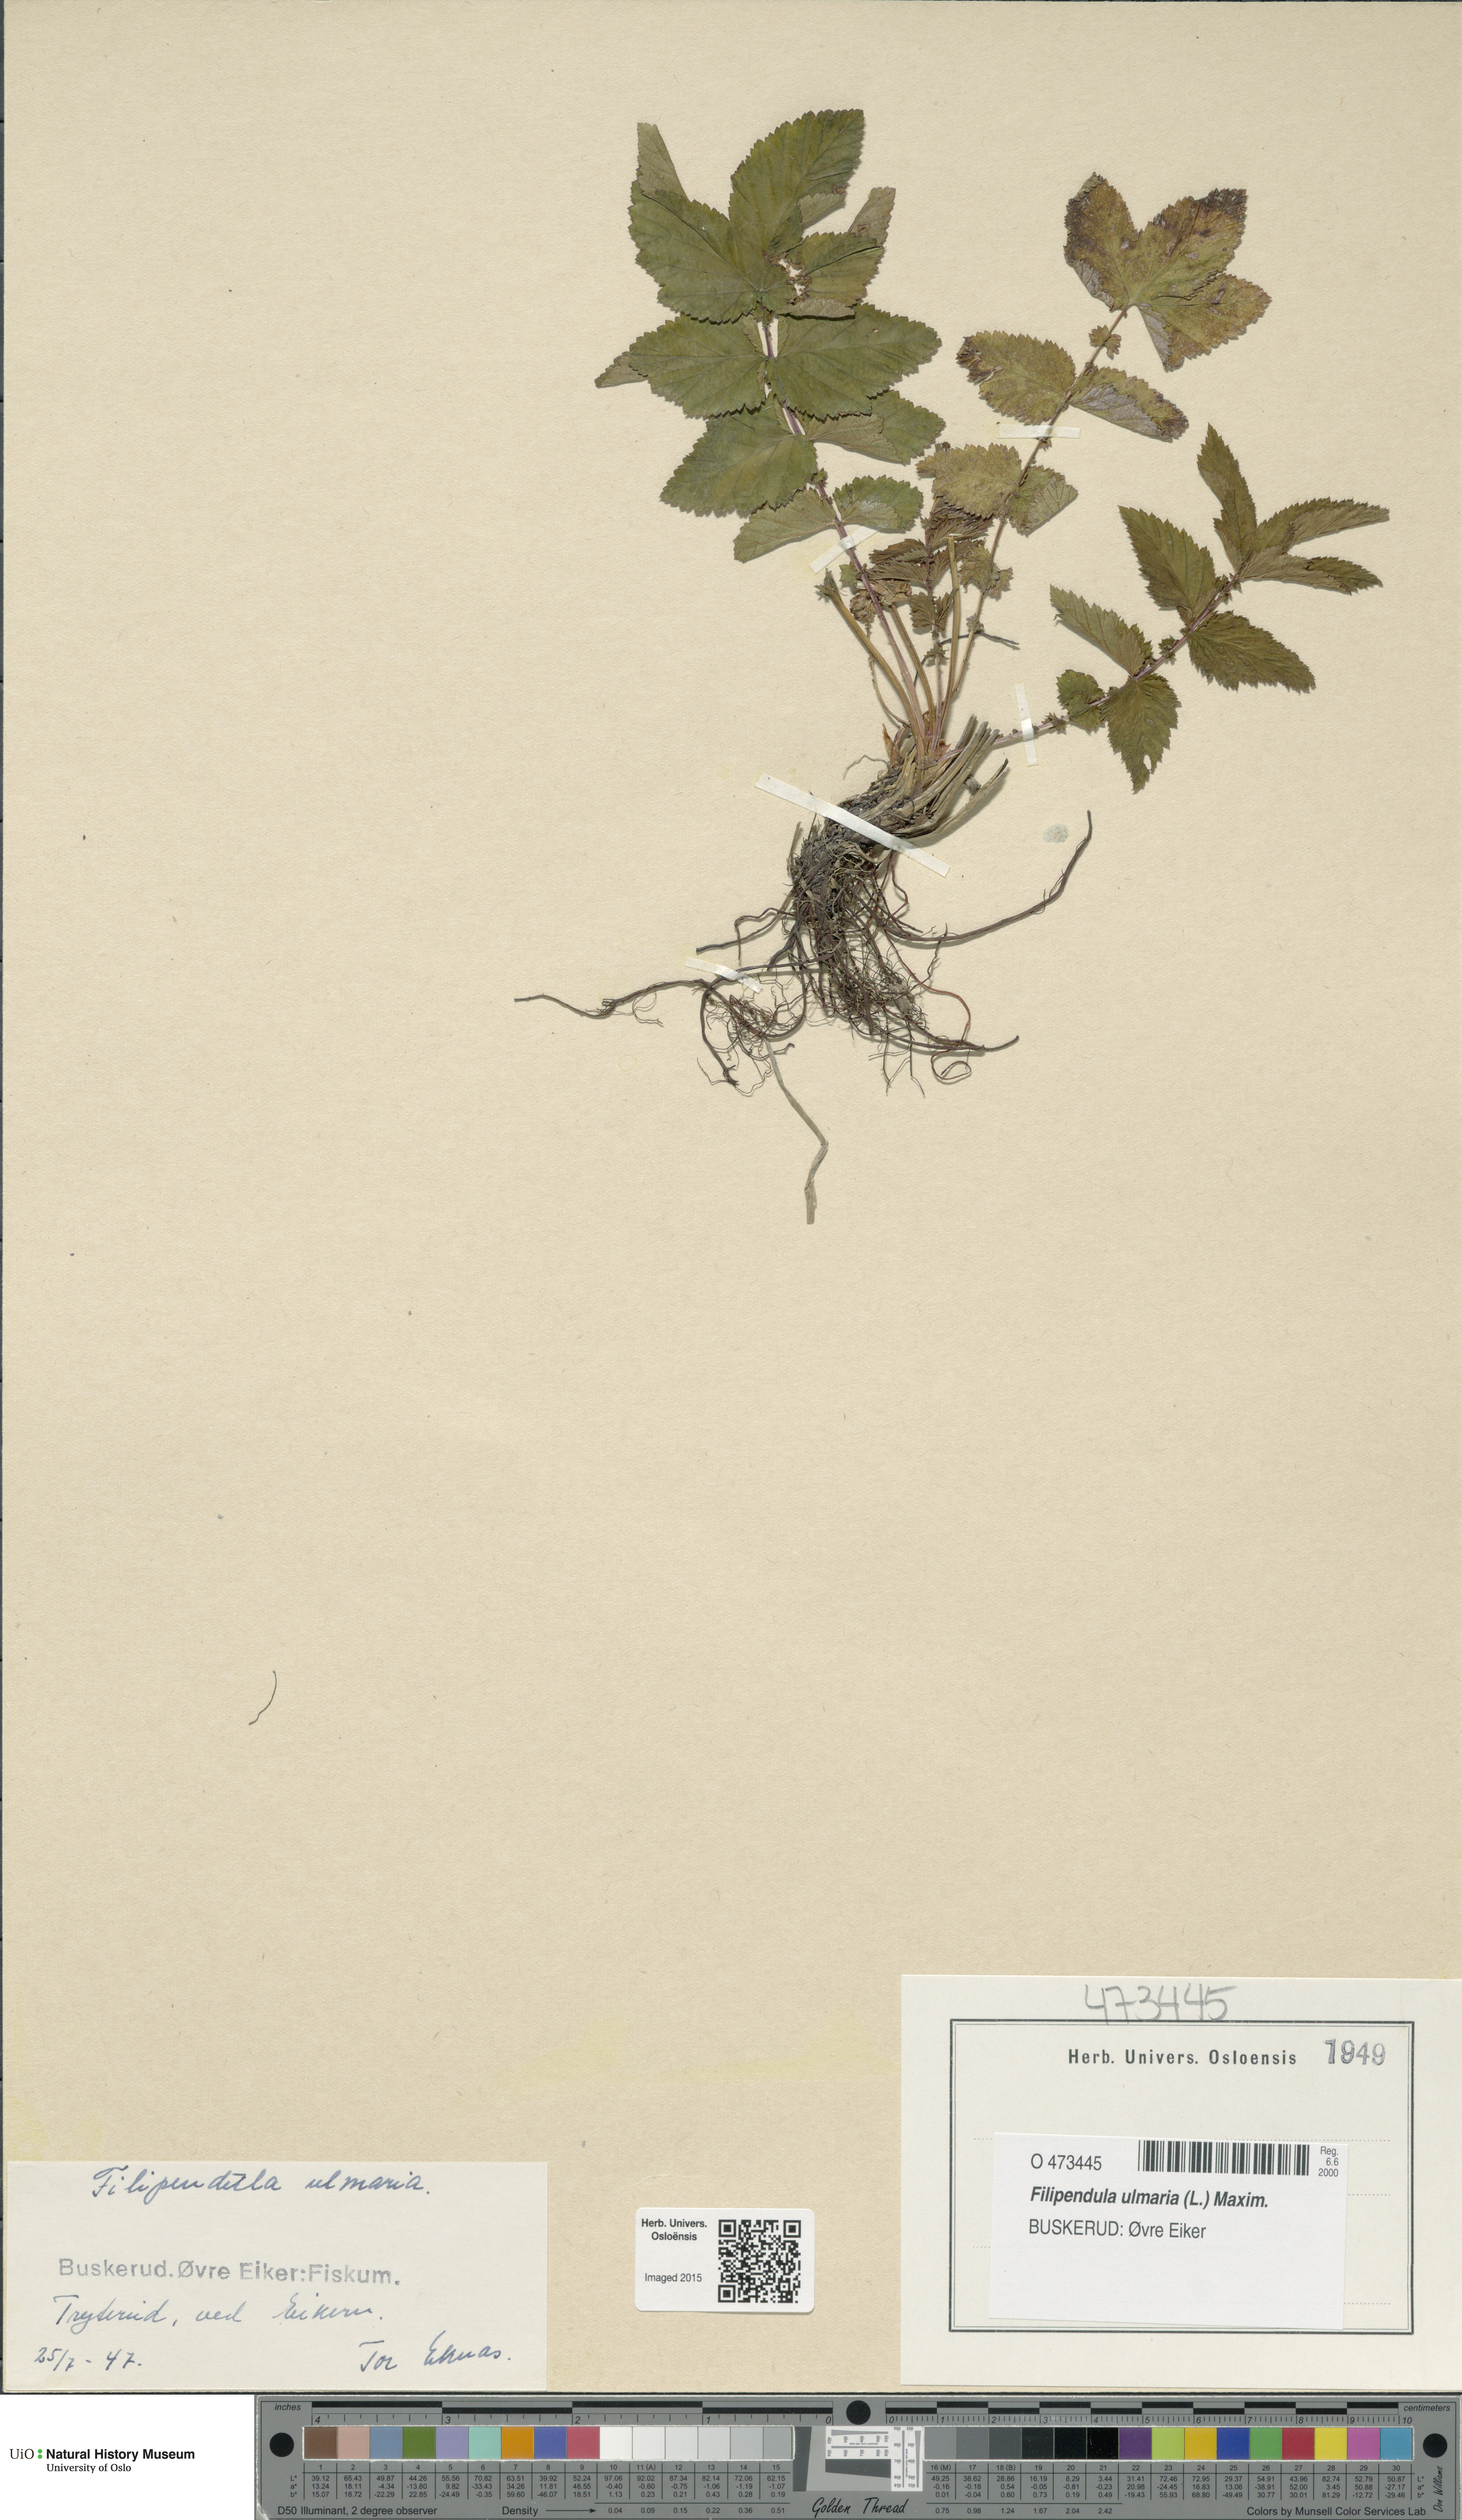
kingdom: Plantae
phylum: Tracheophyta
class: Magnoliopsida
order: Rosales
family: Rosaceae
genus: Filipendula
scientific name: Filipendula ulmaria
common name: Meadowsweet
